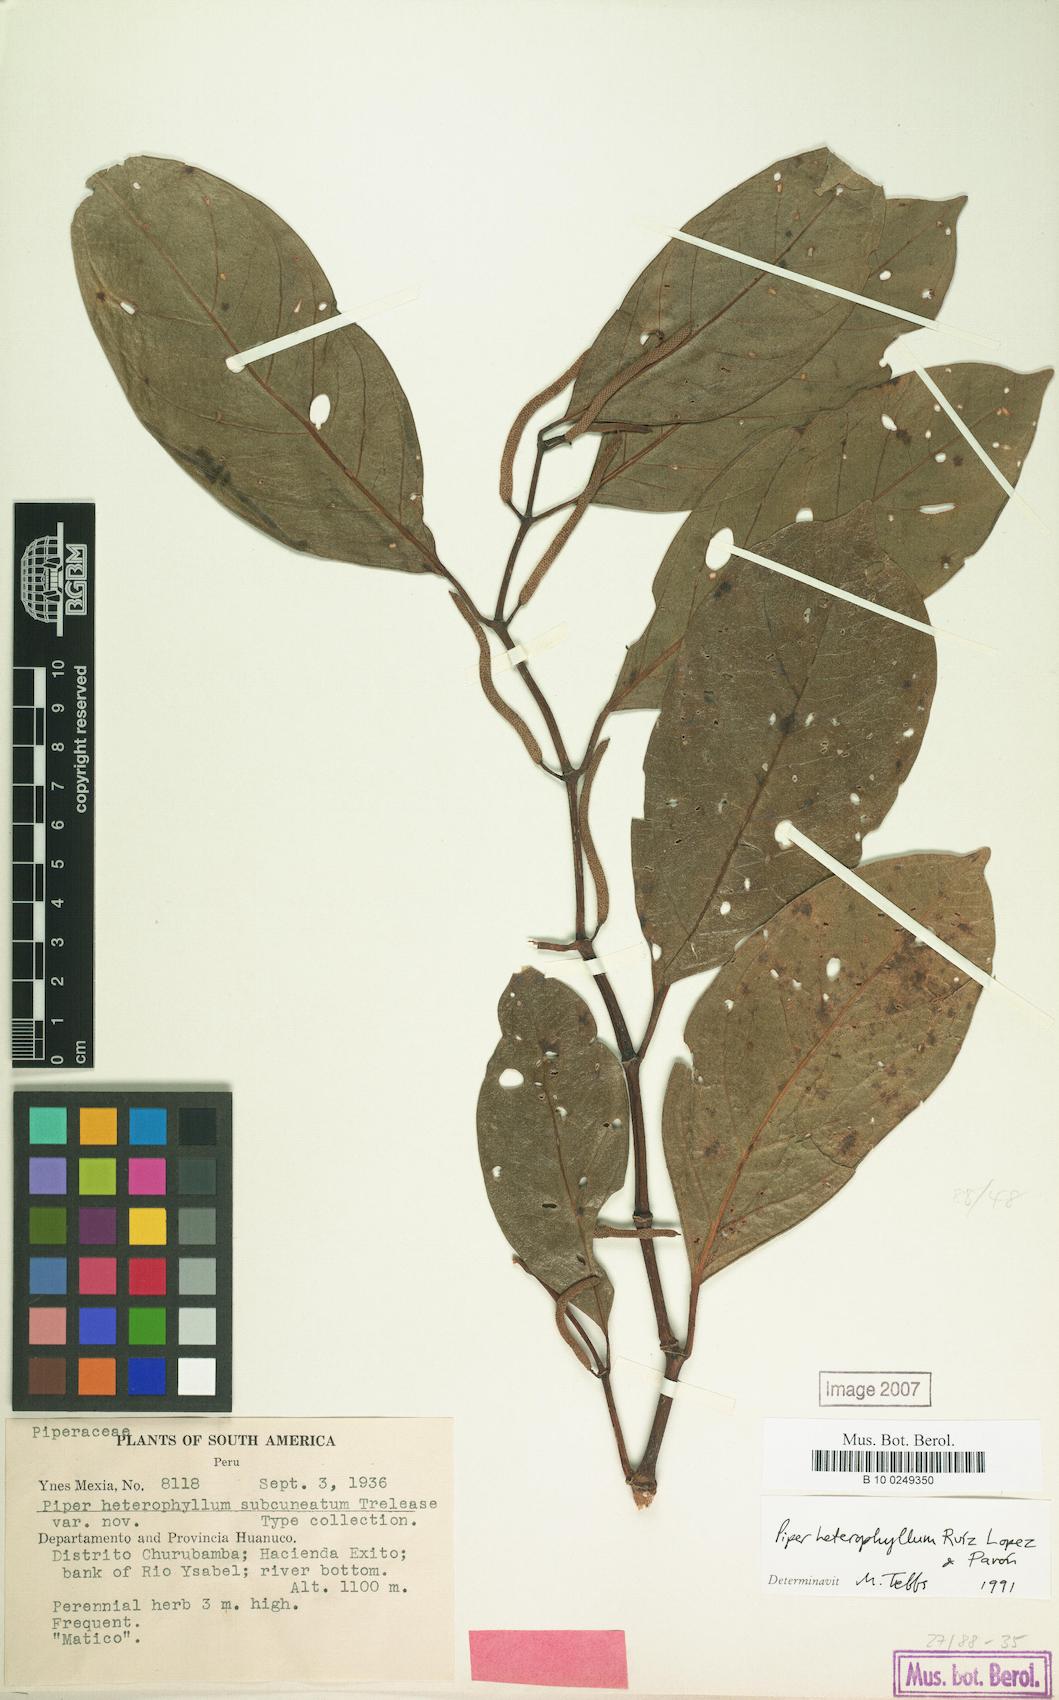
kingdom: Plantae
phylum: Tracheophyta
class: Magnoliopsida
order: Piperales
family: Piperaceae
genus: Piper
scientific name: Piper heterophyllum
